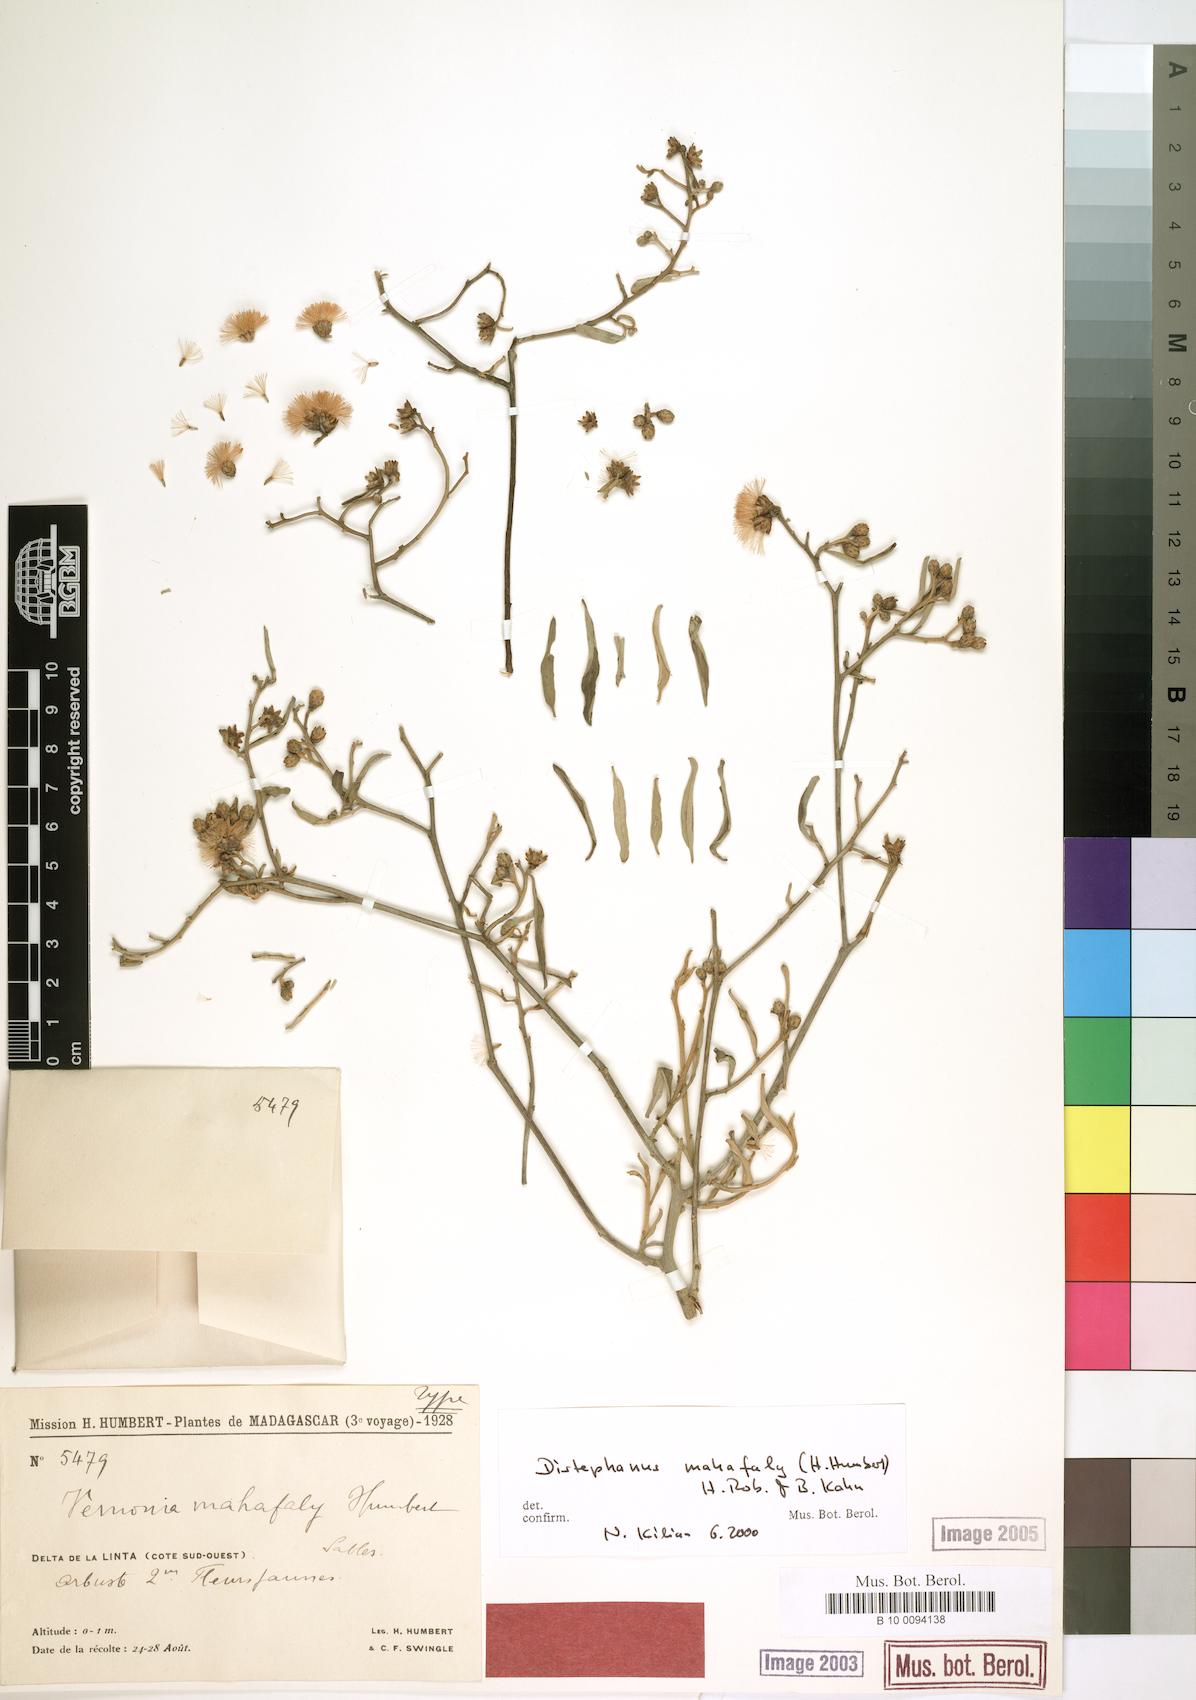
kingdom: Plantae
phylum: Tracheophyta
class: Magnoliopsida
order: Asterales
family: Asteraceae
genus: Distephanus
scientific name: Distephanus mahafaly
